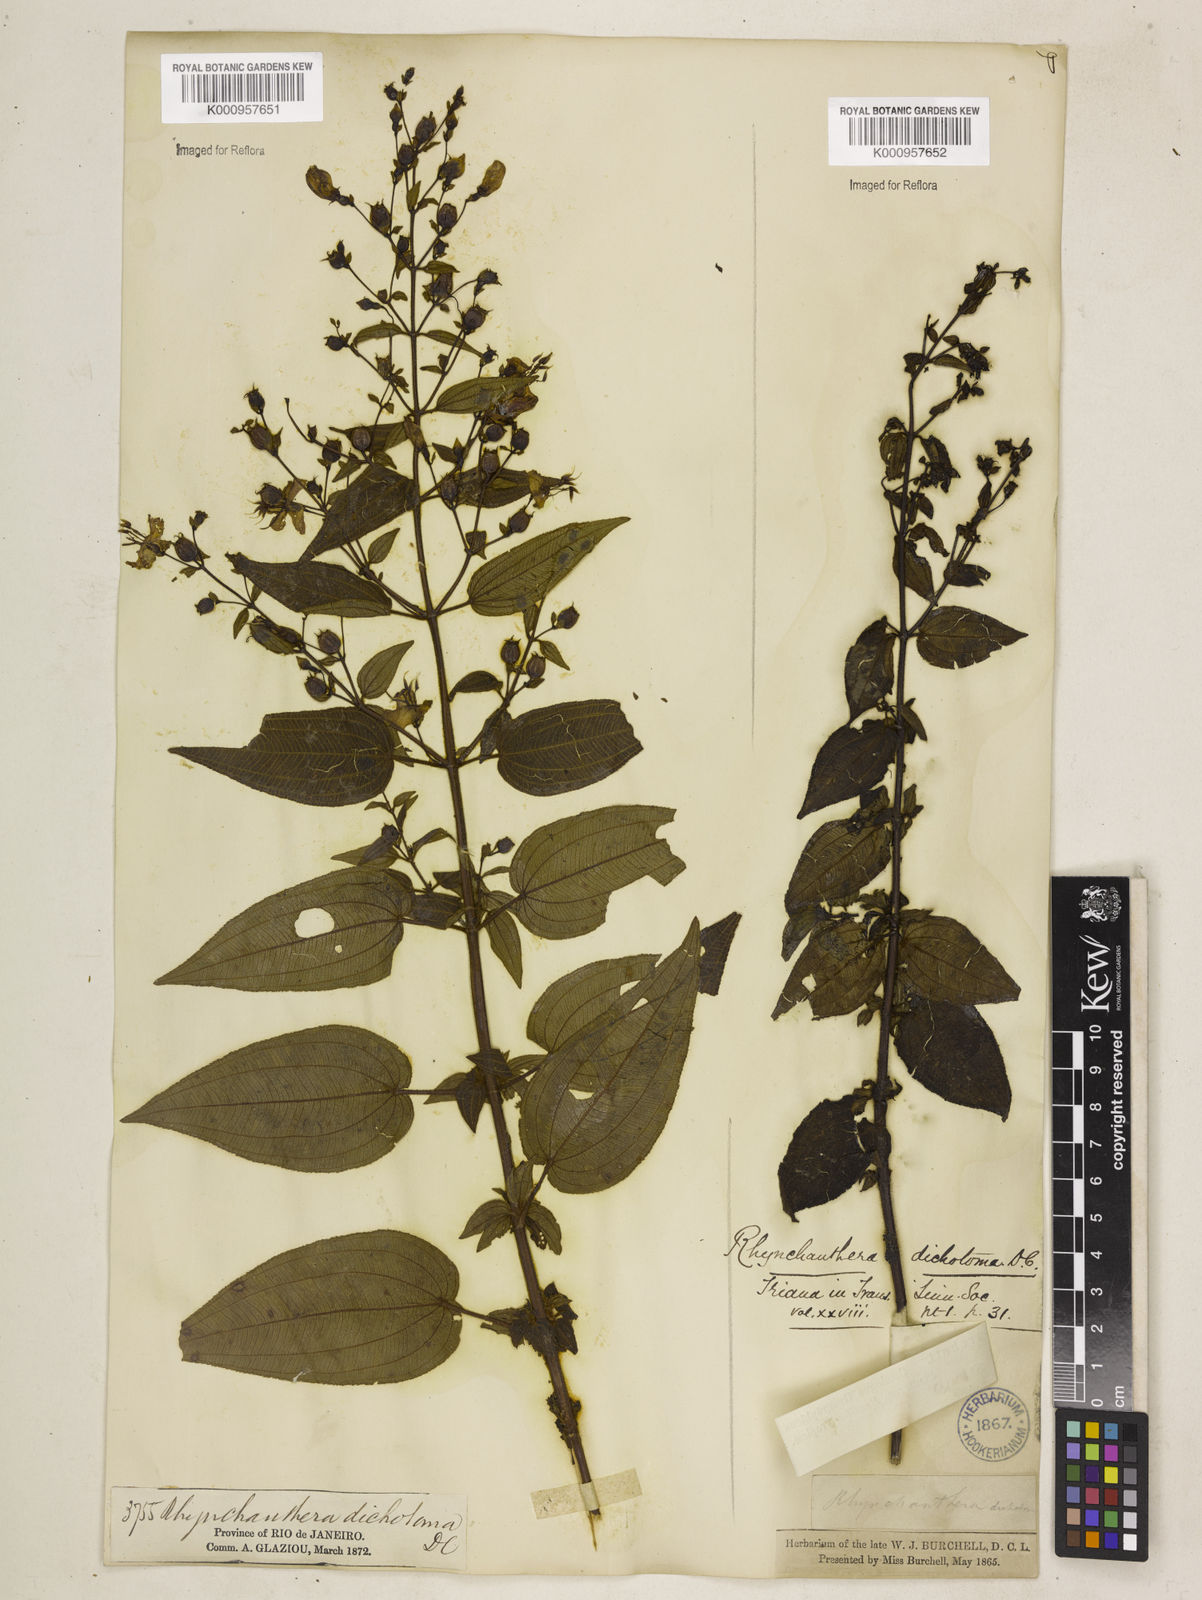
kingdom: Plantae
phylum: Tracheophyta
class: Magnoliopsida
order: Myrtales
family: Melastomataceae
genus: Rhynchanthera
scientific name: Rhynchanthera dichotoma
